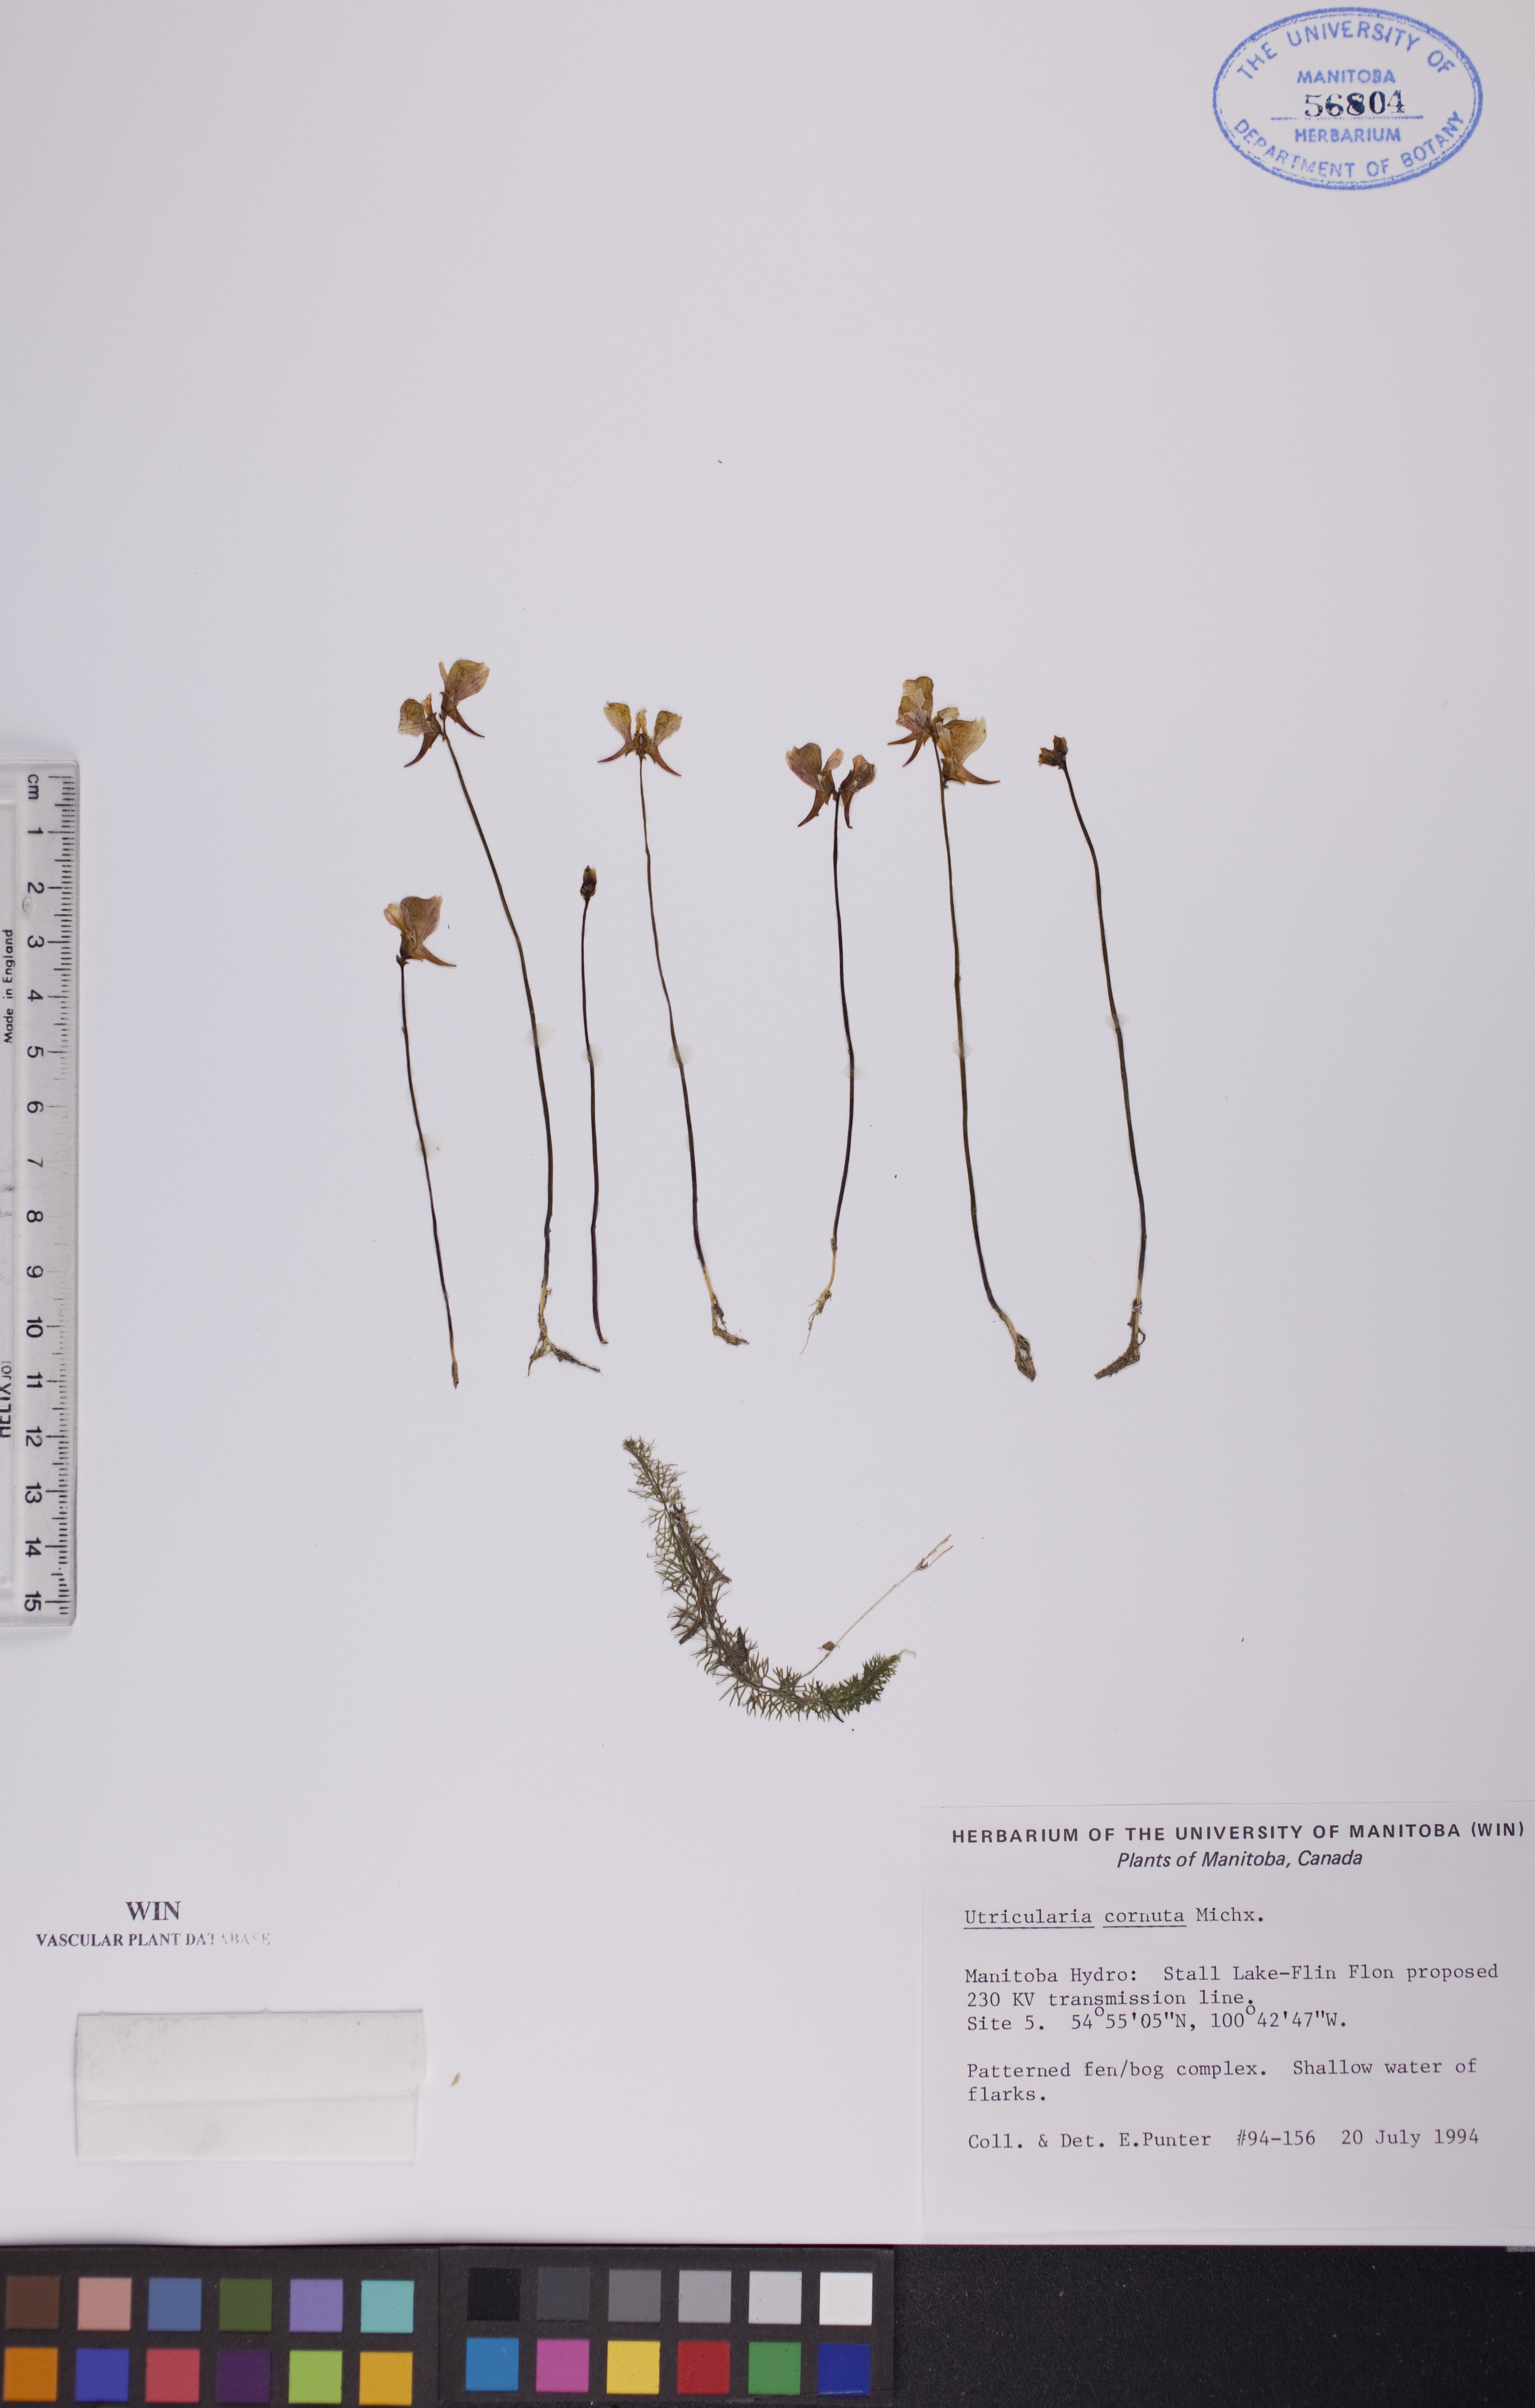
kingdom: Plantae
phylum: Tracheophyta
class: Magnoliopsida
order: Lamiales
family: Lentibulariaceae
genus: Utricularia
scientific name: Utricularia cornuta
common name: Horned bladderwort
